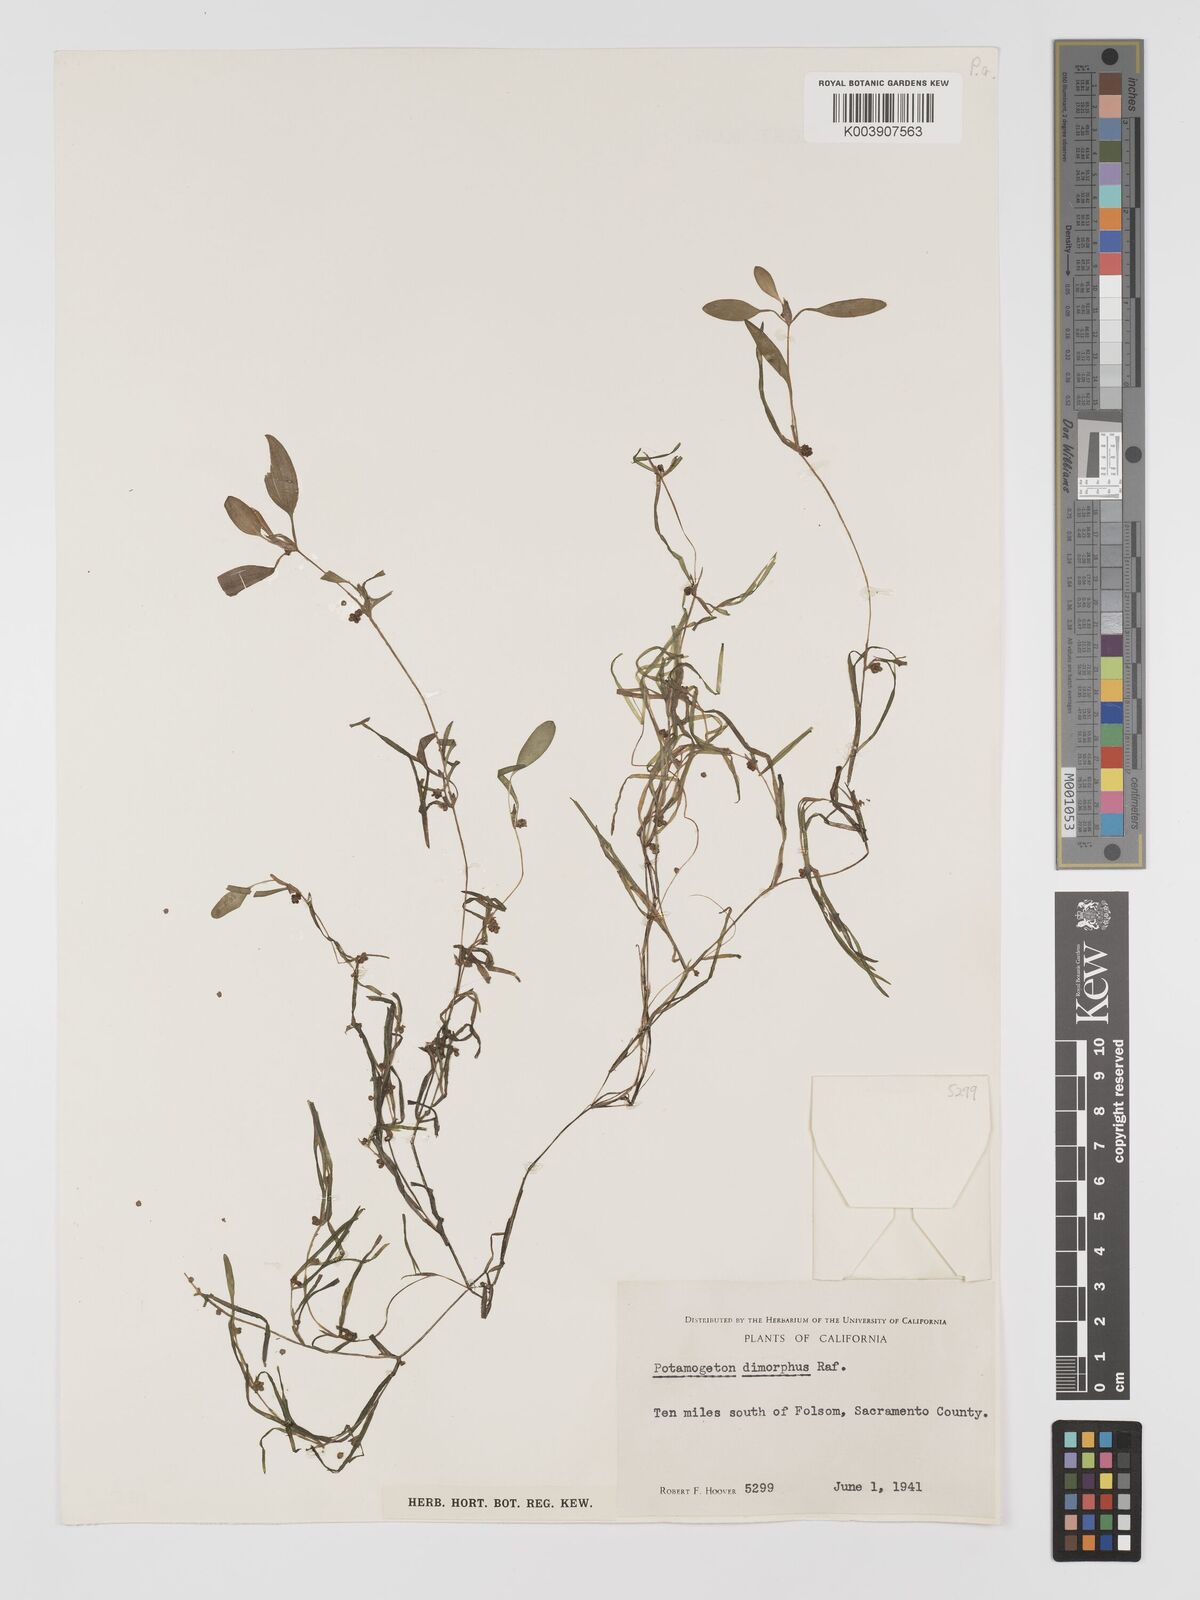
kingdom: Plantae
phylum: Tracheophyta
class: Liliopsida
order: Alismatales
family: Potamogetonaceae
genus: Potamogeton
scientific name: Potamogeton bicupulatus
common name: Snail-seed pondweed
